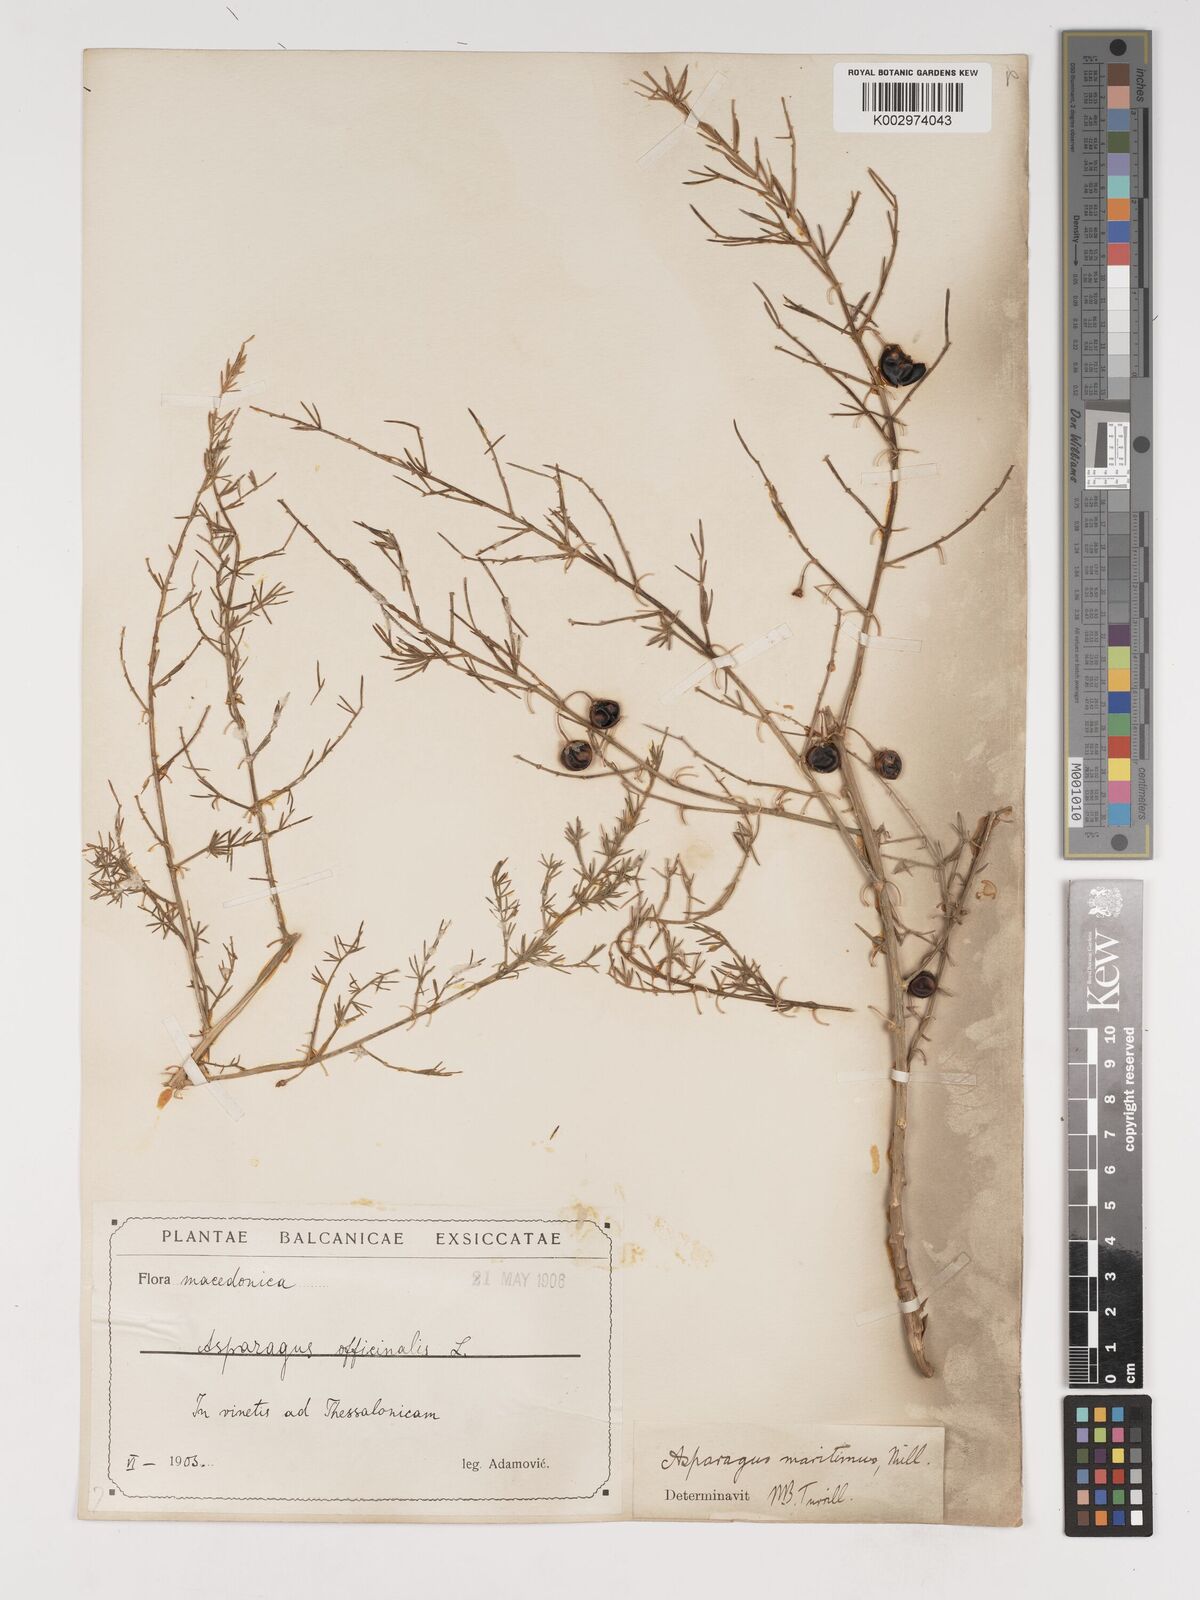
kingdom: Plantae
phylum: Tracheophyta
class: Liliopsida
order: Asparagales
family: Asparagaceae
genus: Asparagus
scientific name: Asparagus maritimus
